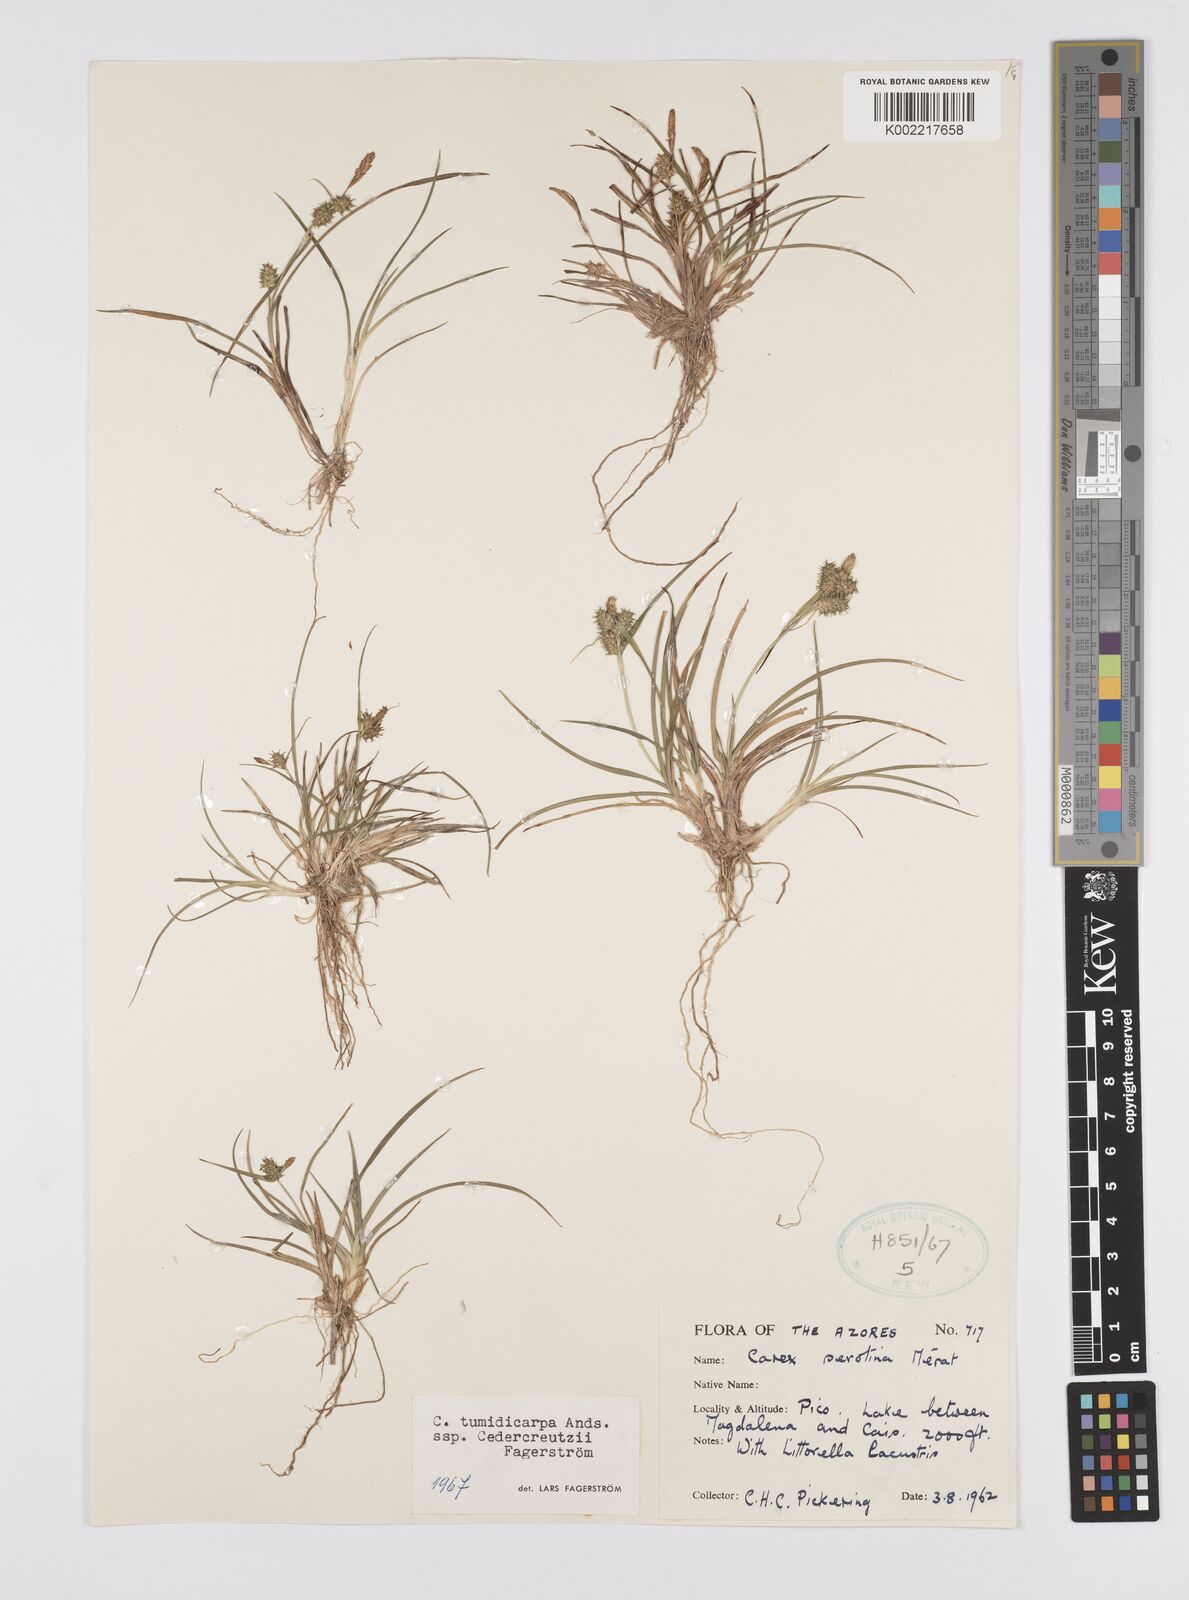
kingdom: Plantae
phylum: Tracheophyta
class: Liliopsida
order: Poales
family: Cyperaceae
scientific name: Cyperaceae
